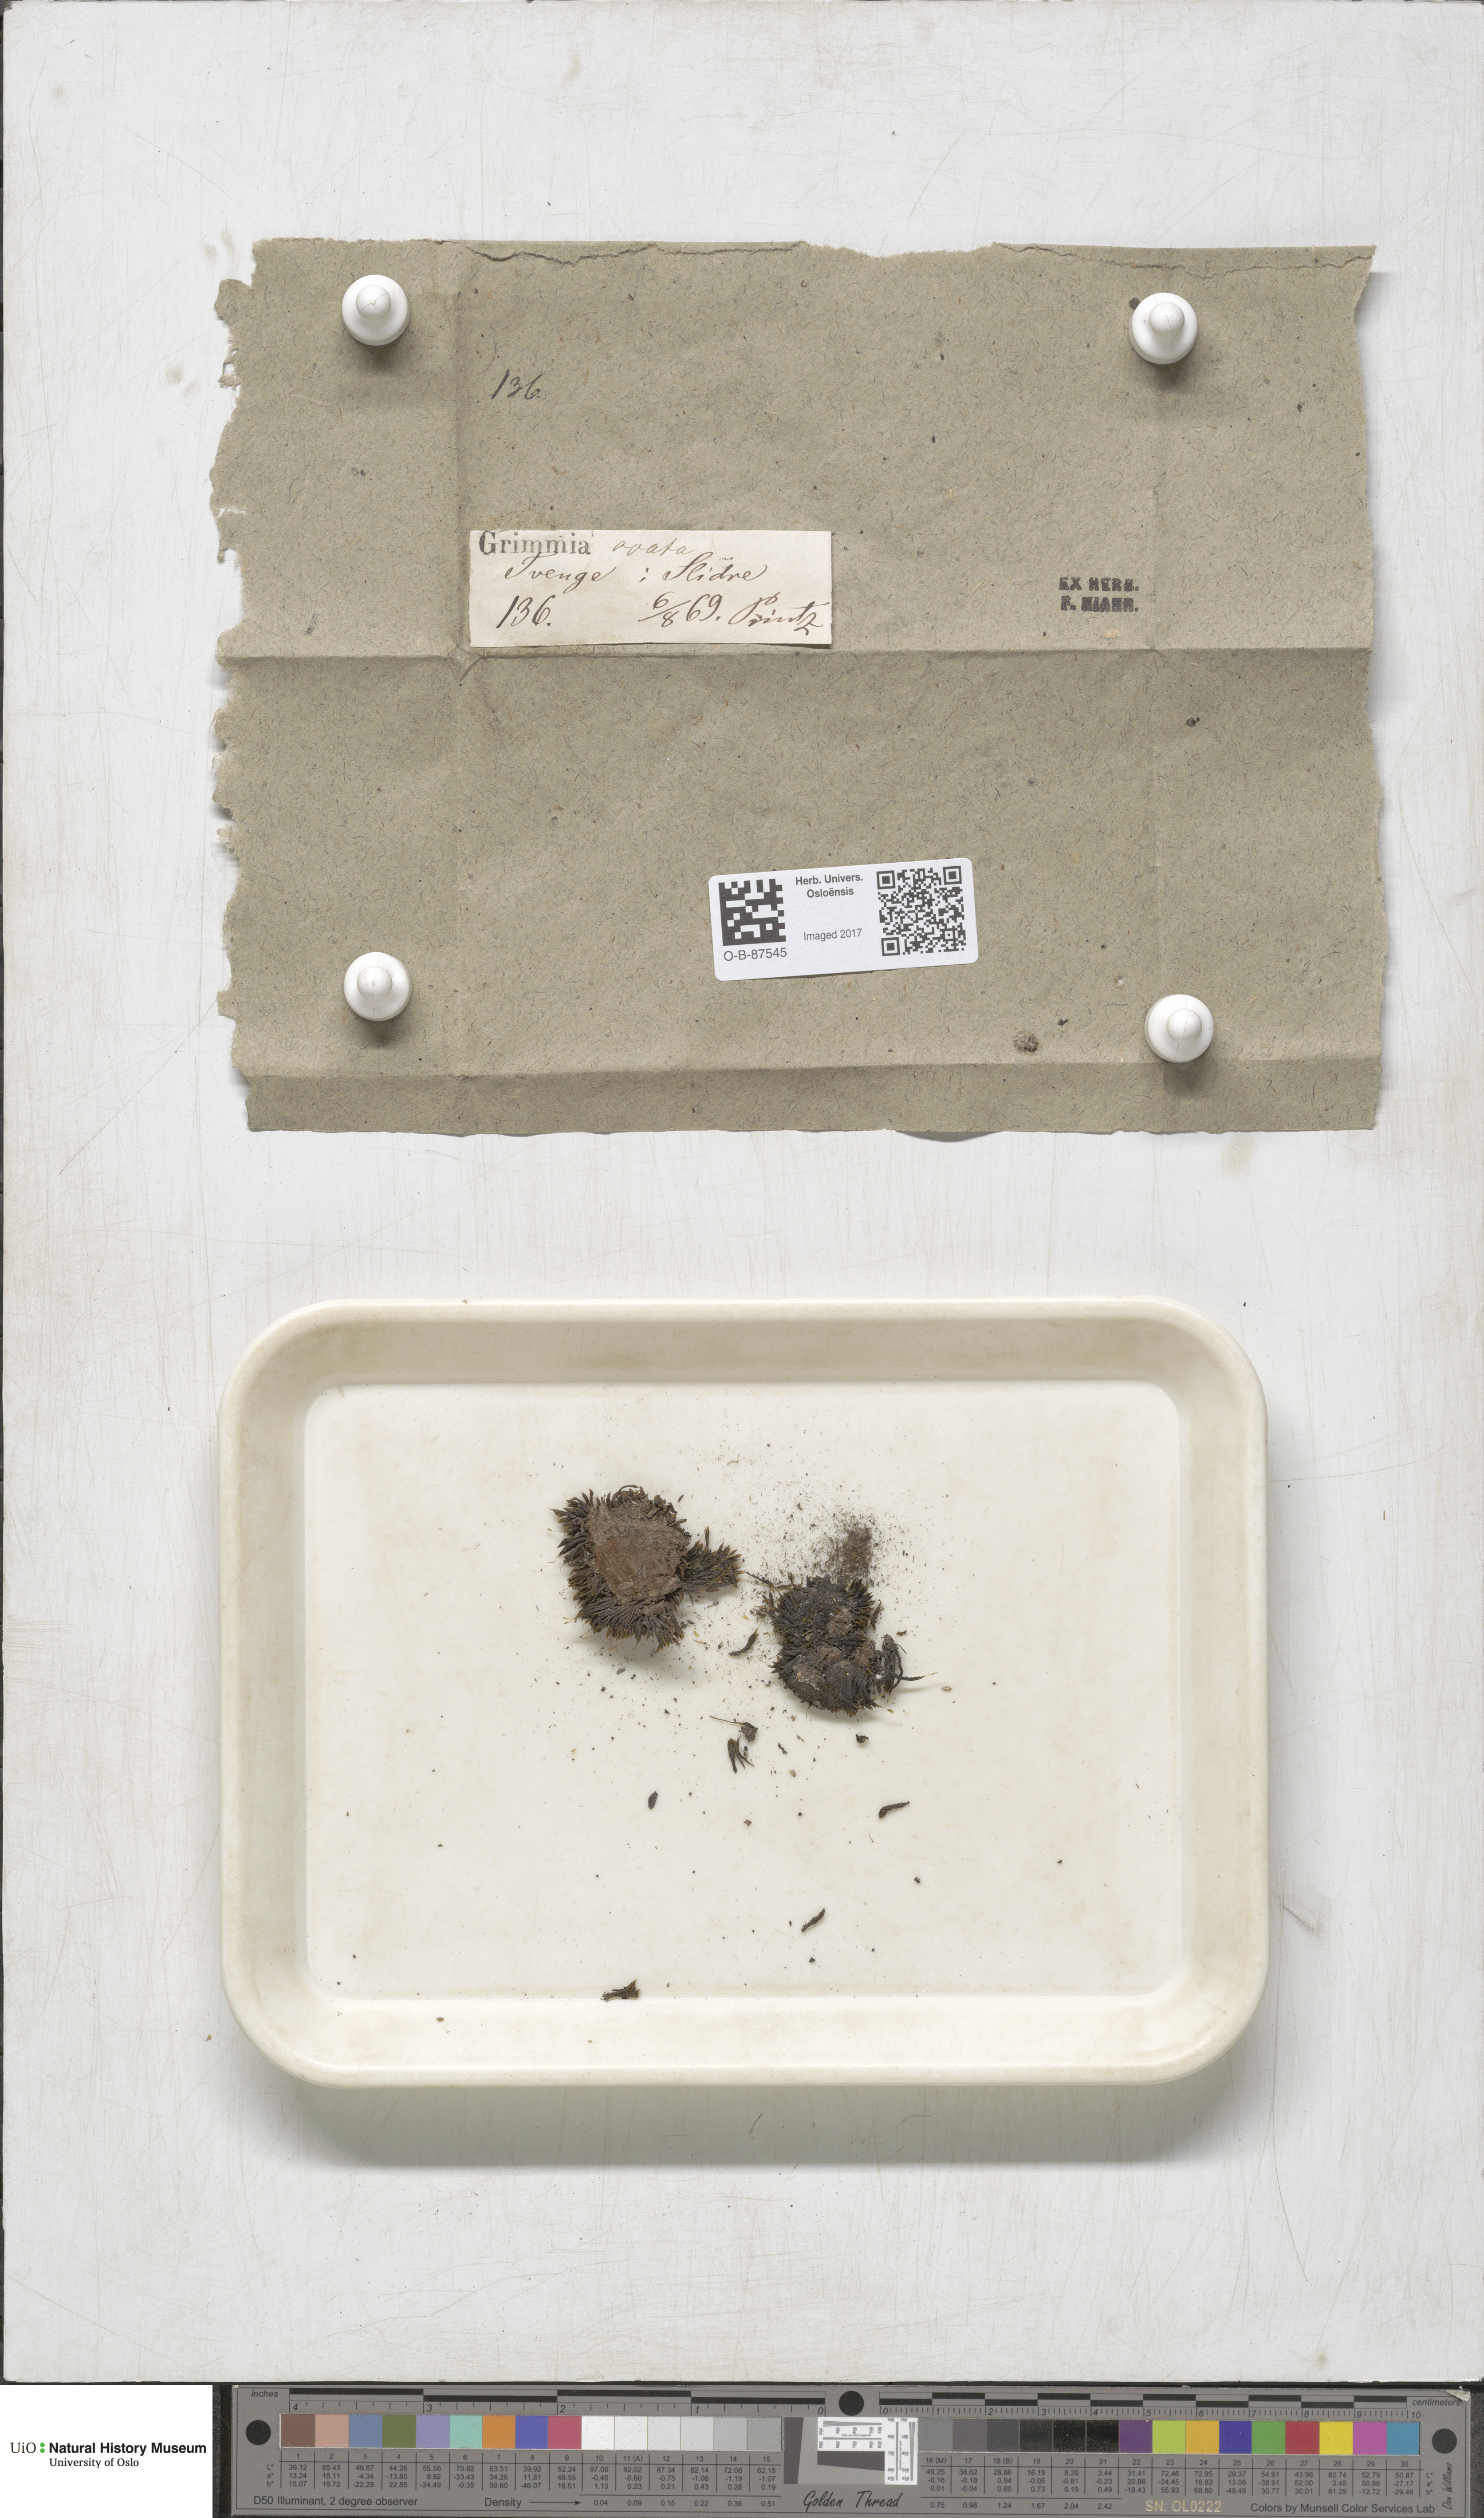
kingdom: Plantae
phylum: Bryophyta
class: Bryopsida
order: Grimmiales
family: Grimmiaceae
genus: Grimmia
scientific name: Grimmia ovalis
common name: Oval grimmia
